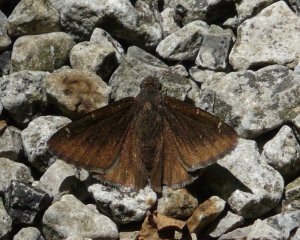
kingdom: Animalia
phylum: Arthropoda
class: Insecta
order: Lepidoptera
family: Hesperiidae
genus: Autochton
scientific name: Autochton
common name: Northern Cloudywing
